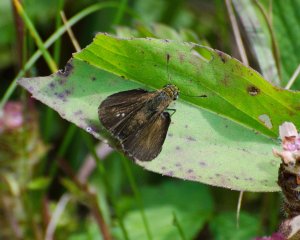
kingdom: Animalia
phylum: Arthropoda
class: Insecta
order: Lepidoptera
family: Hesperiidae
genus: Euphyes
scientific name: Euphyes vestris
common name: Dun Skipper
